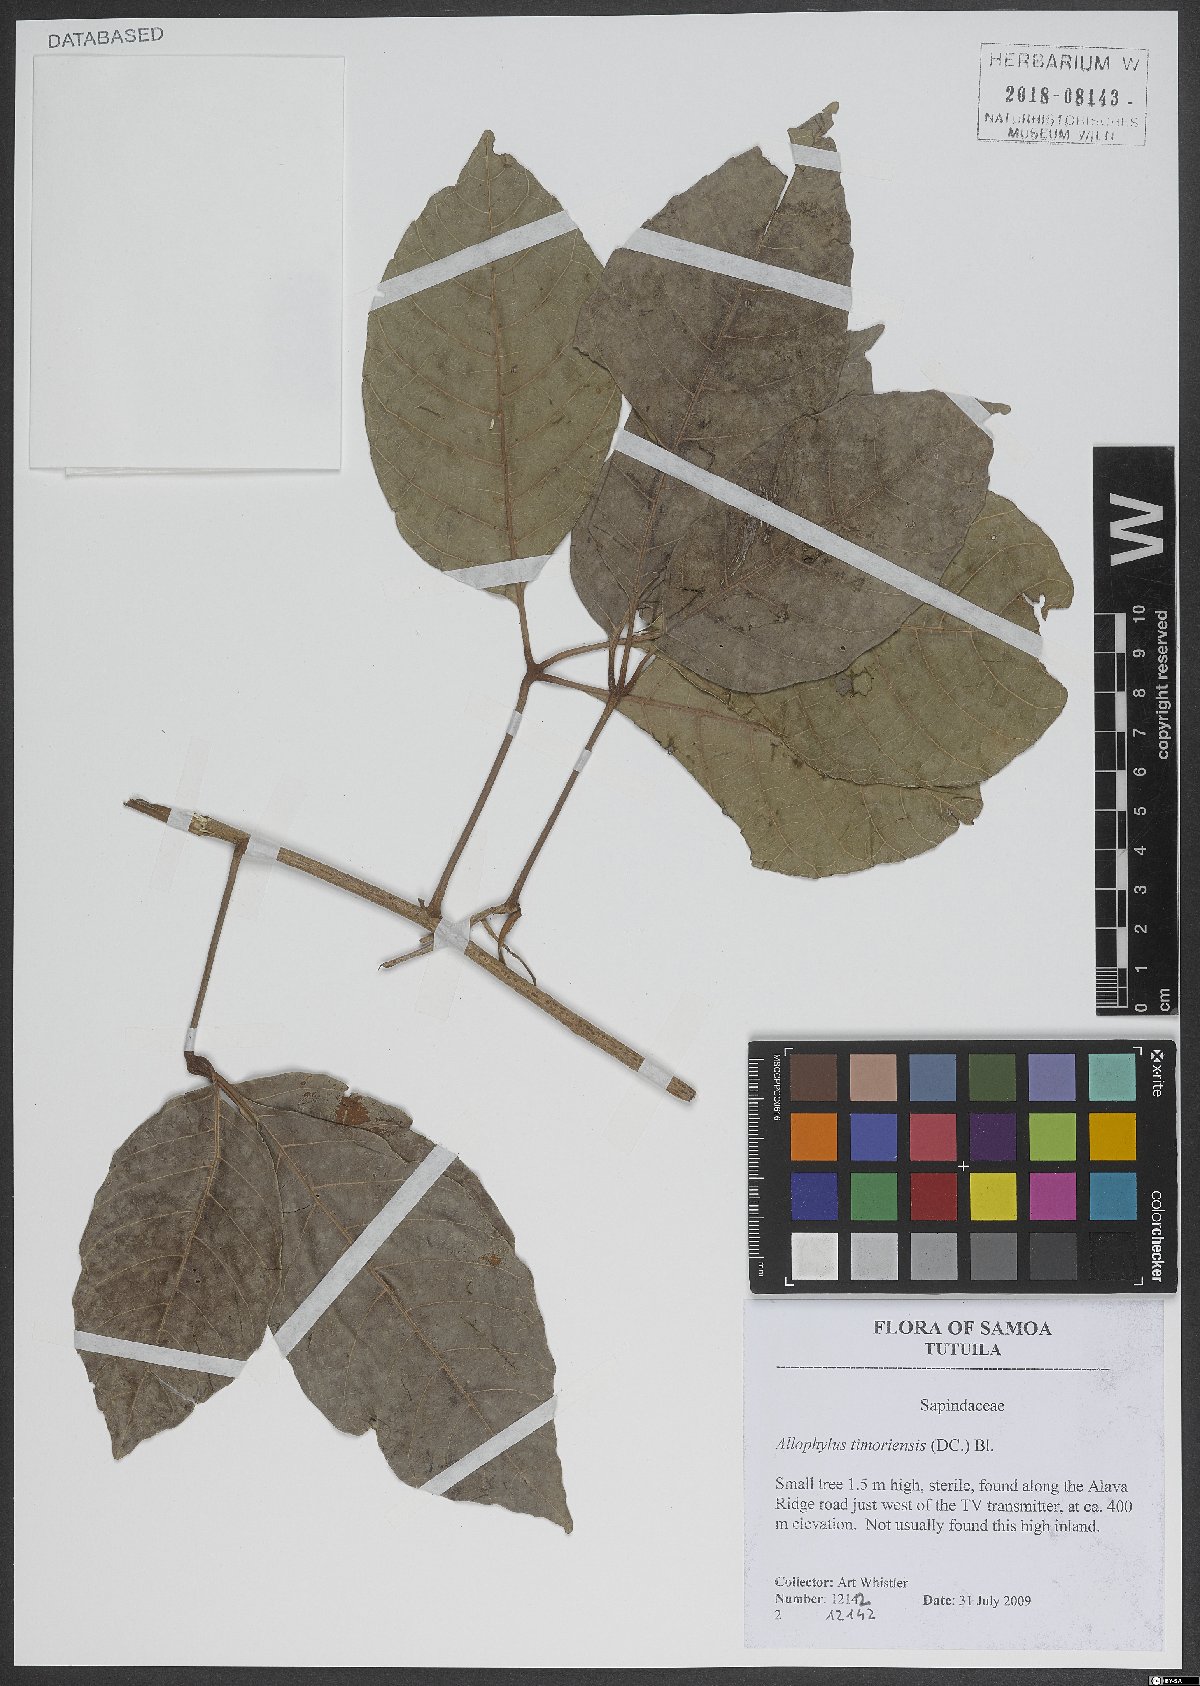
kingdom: Plantae
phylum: Tracheophyta
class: Magnoliopsida
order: Sapindales
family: Sapindaceae
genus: Allophylus
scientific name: Allophylus timorensis
